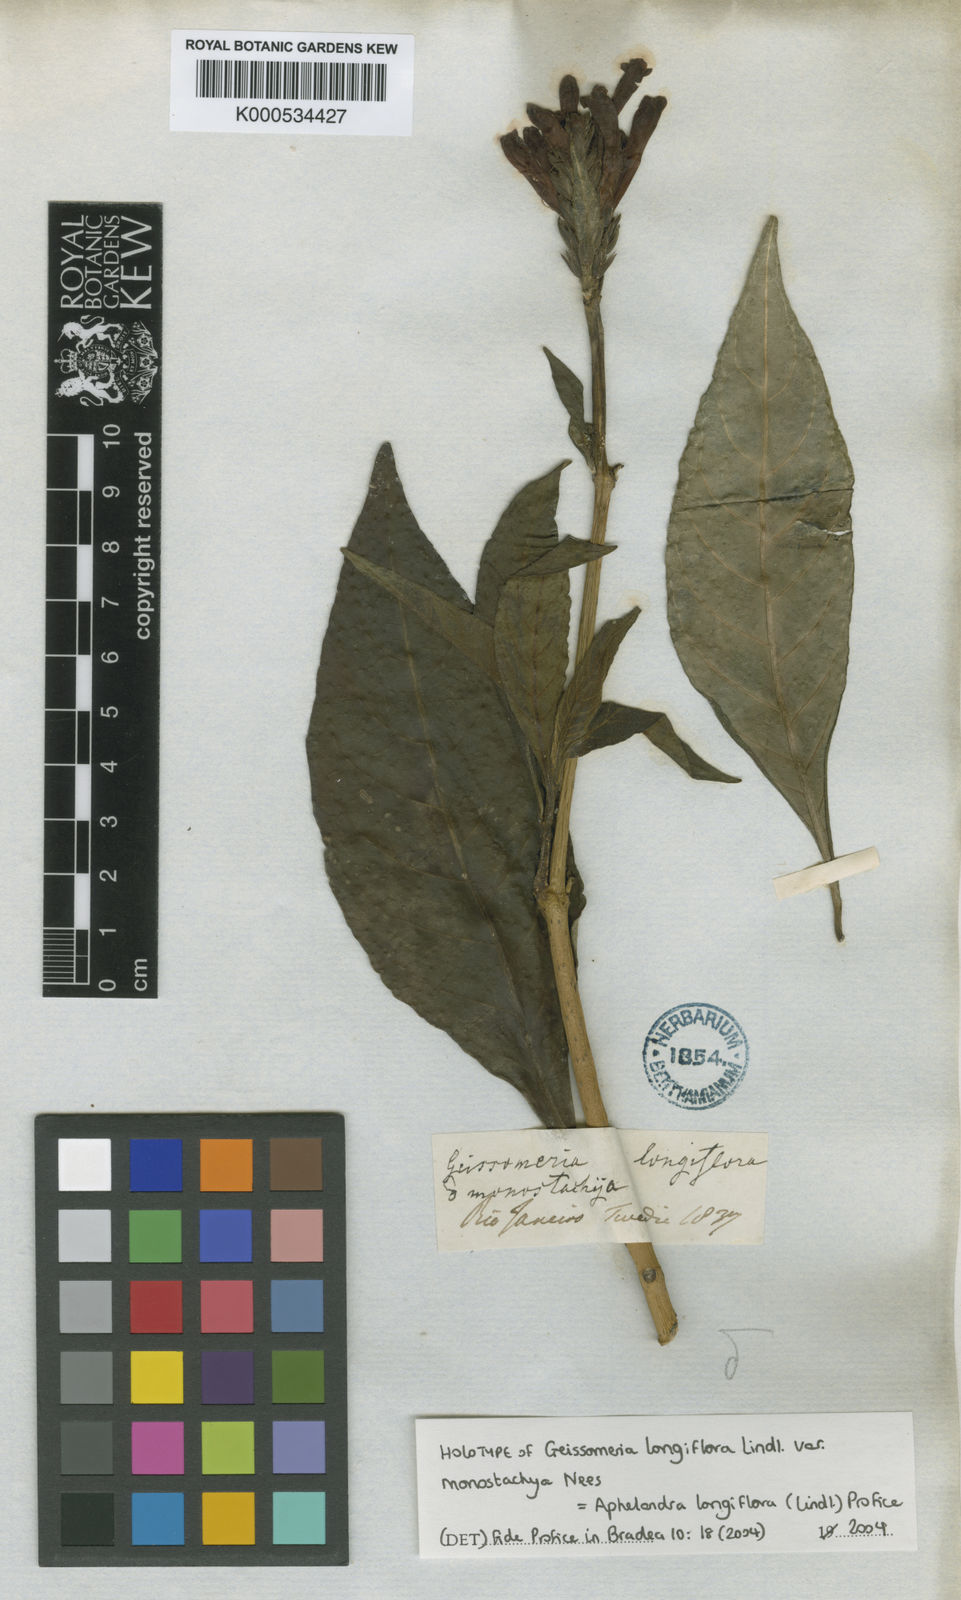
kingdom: Plantae
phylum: Tracheophyta
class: Magnoliopsida
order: Lamiales
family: Acanthaceae
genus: Aphelandra
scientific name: Aphelandra longiflora
